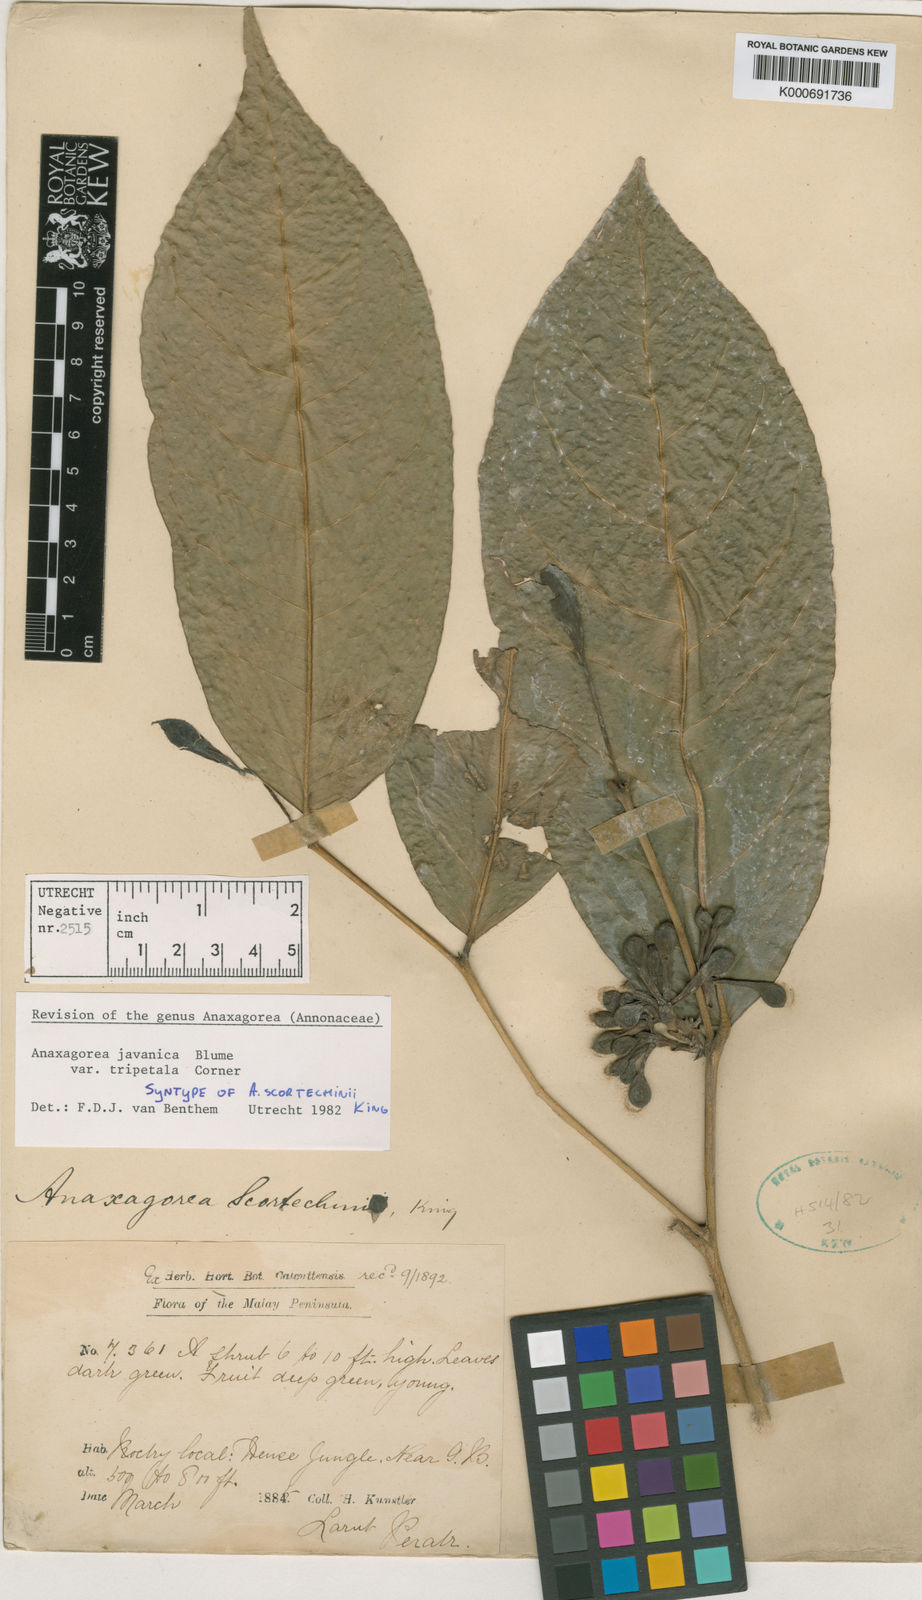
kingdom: Plantae
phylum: Tracheophyta
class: Magnoliopsida
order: Magnoliales
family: Annonaceae
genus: Anaxagorea
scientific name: Anaxagorea javanica
